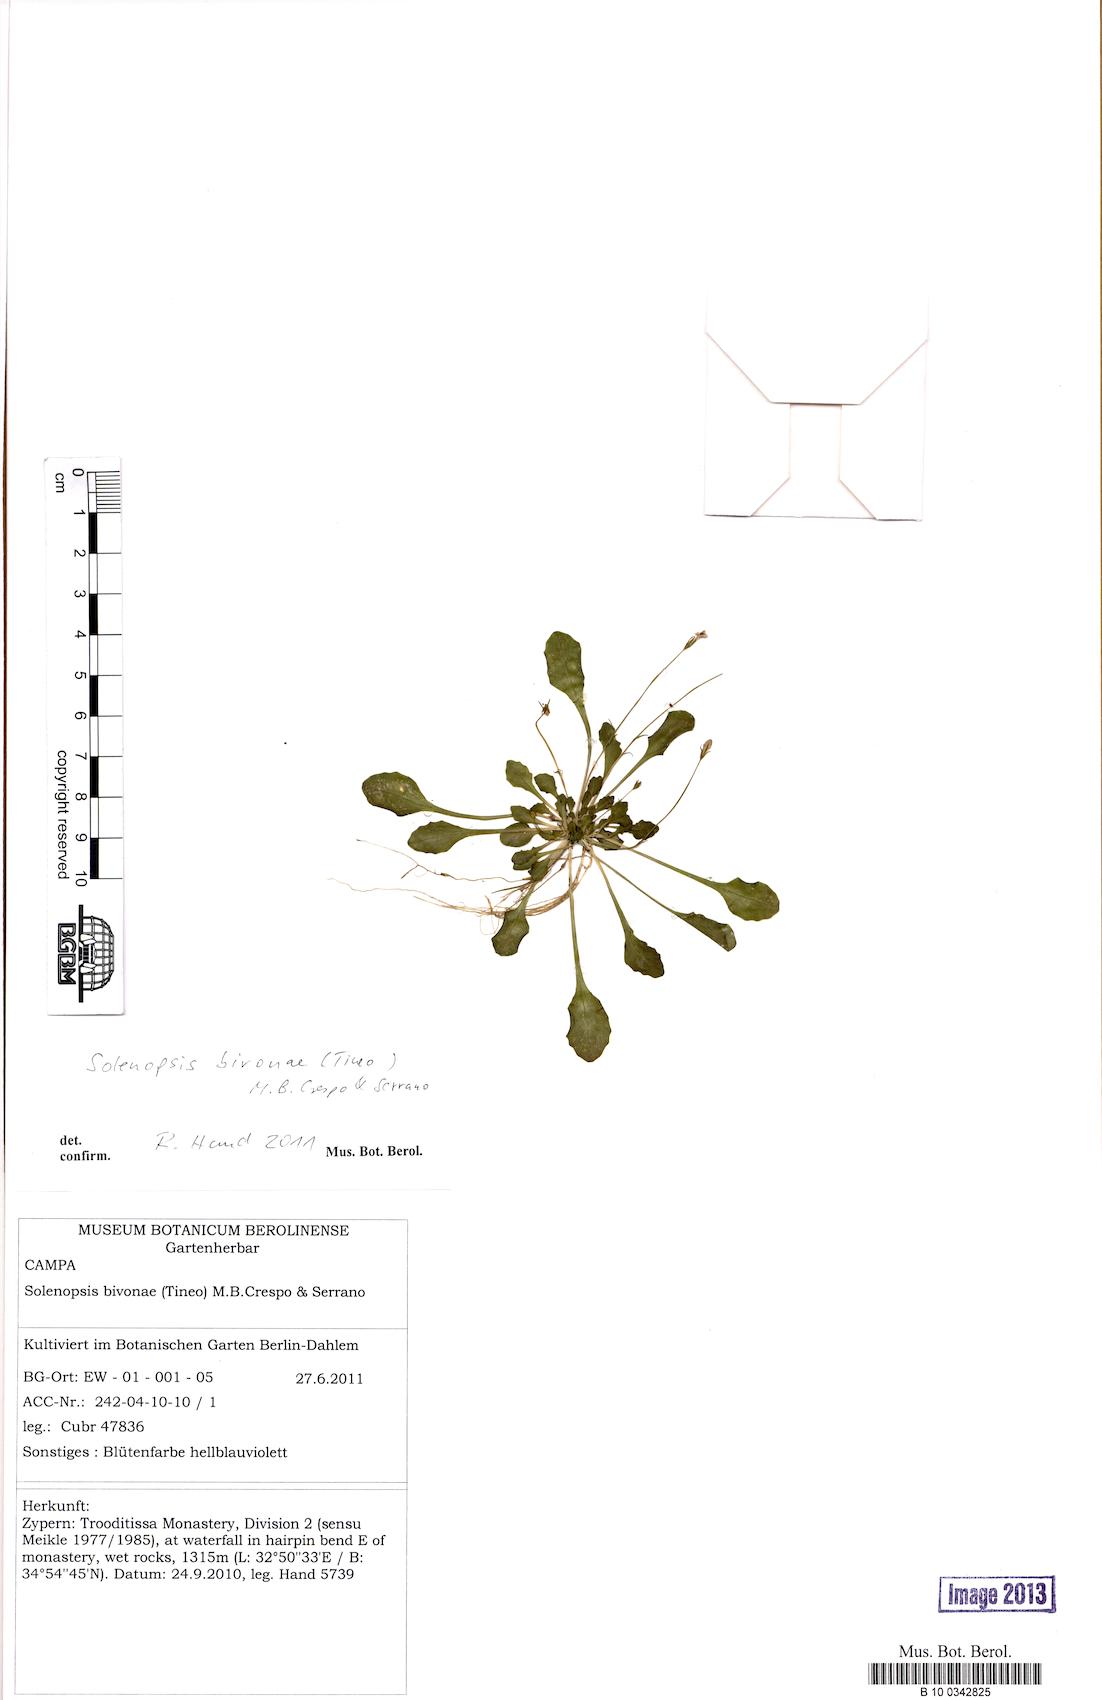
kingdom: Plantae
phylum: Tracheophyta
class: Magnoliopsida
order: Asterales
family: Campanulaceae
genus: Solenopsis
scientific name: Solenopsis bivonae
